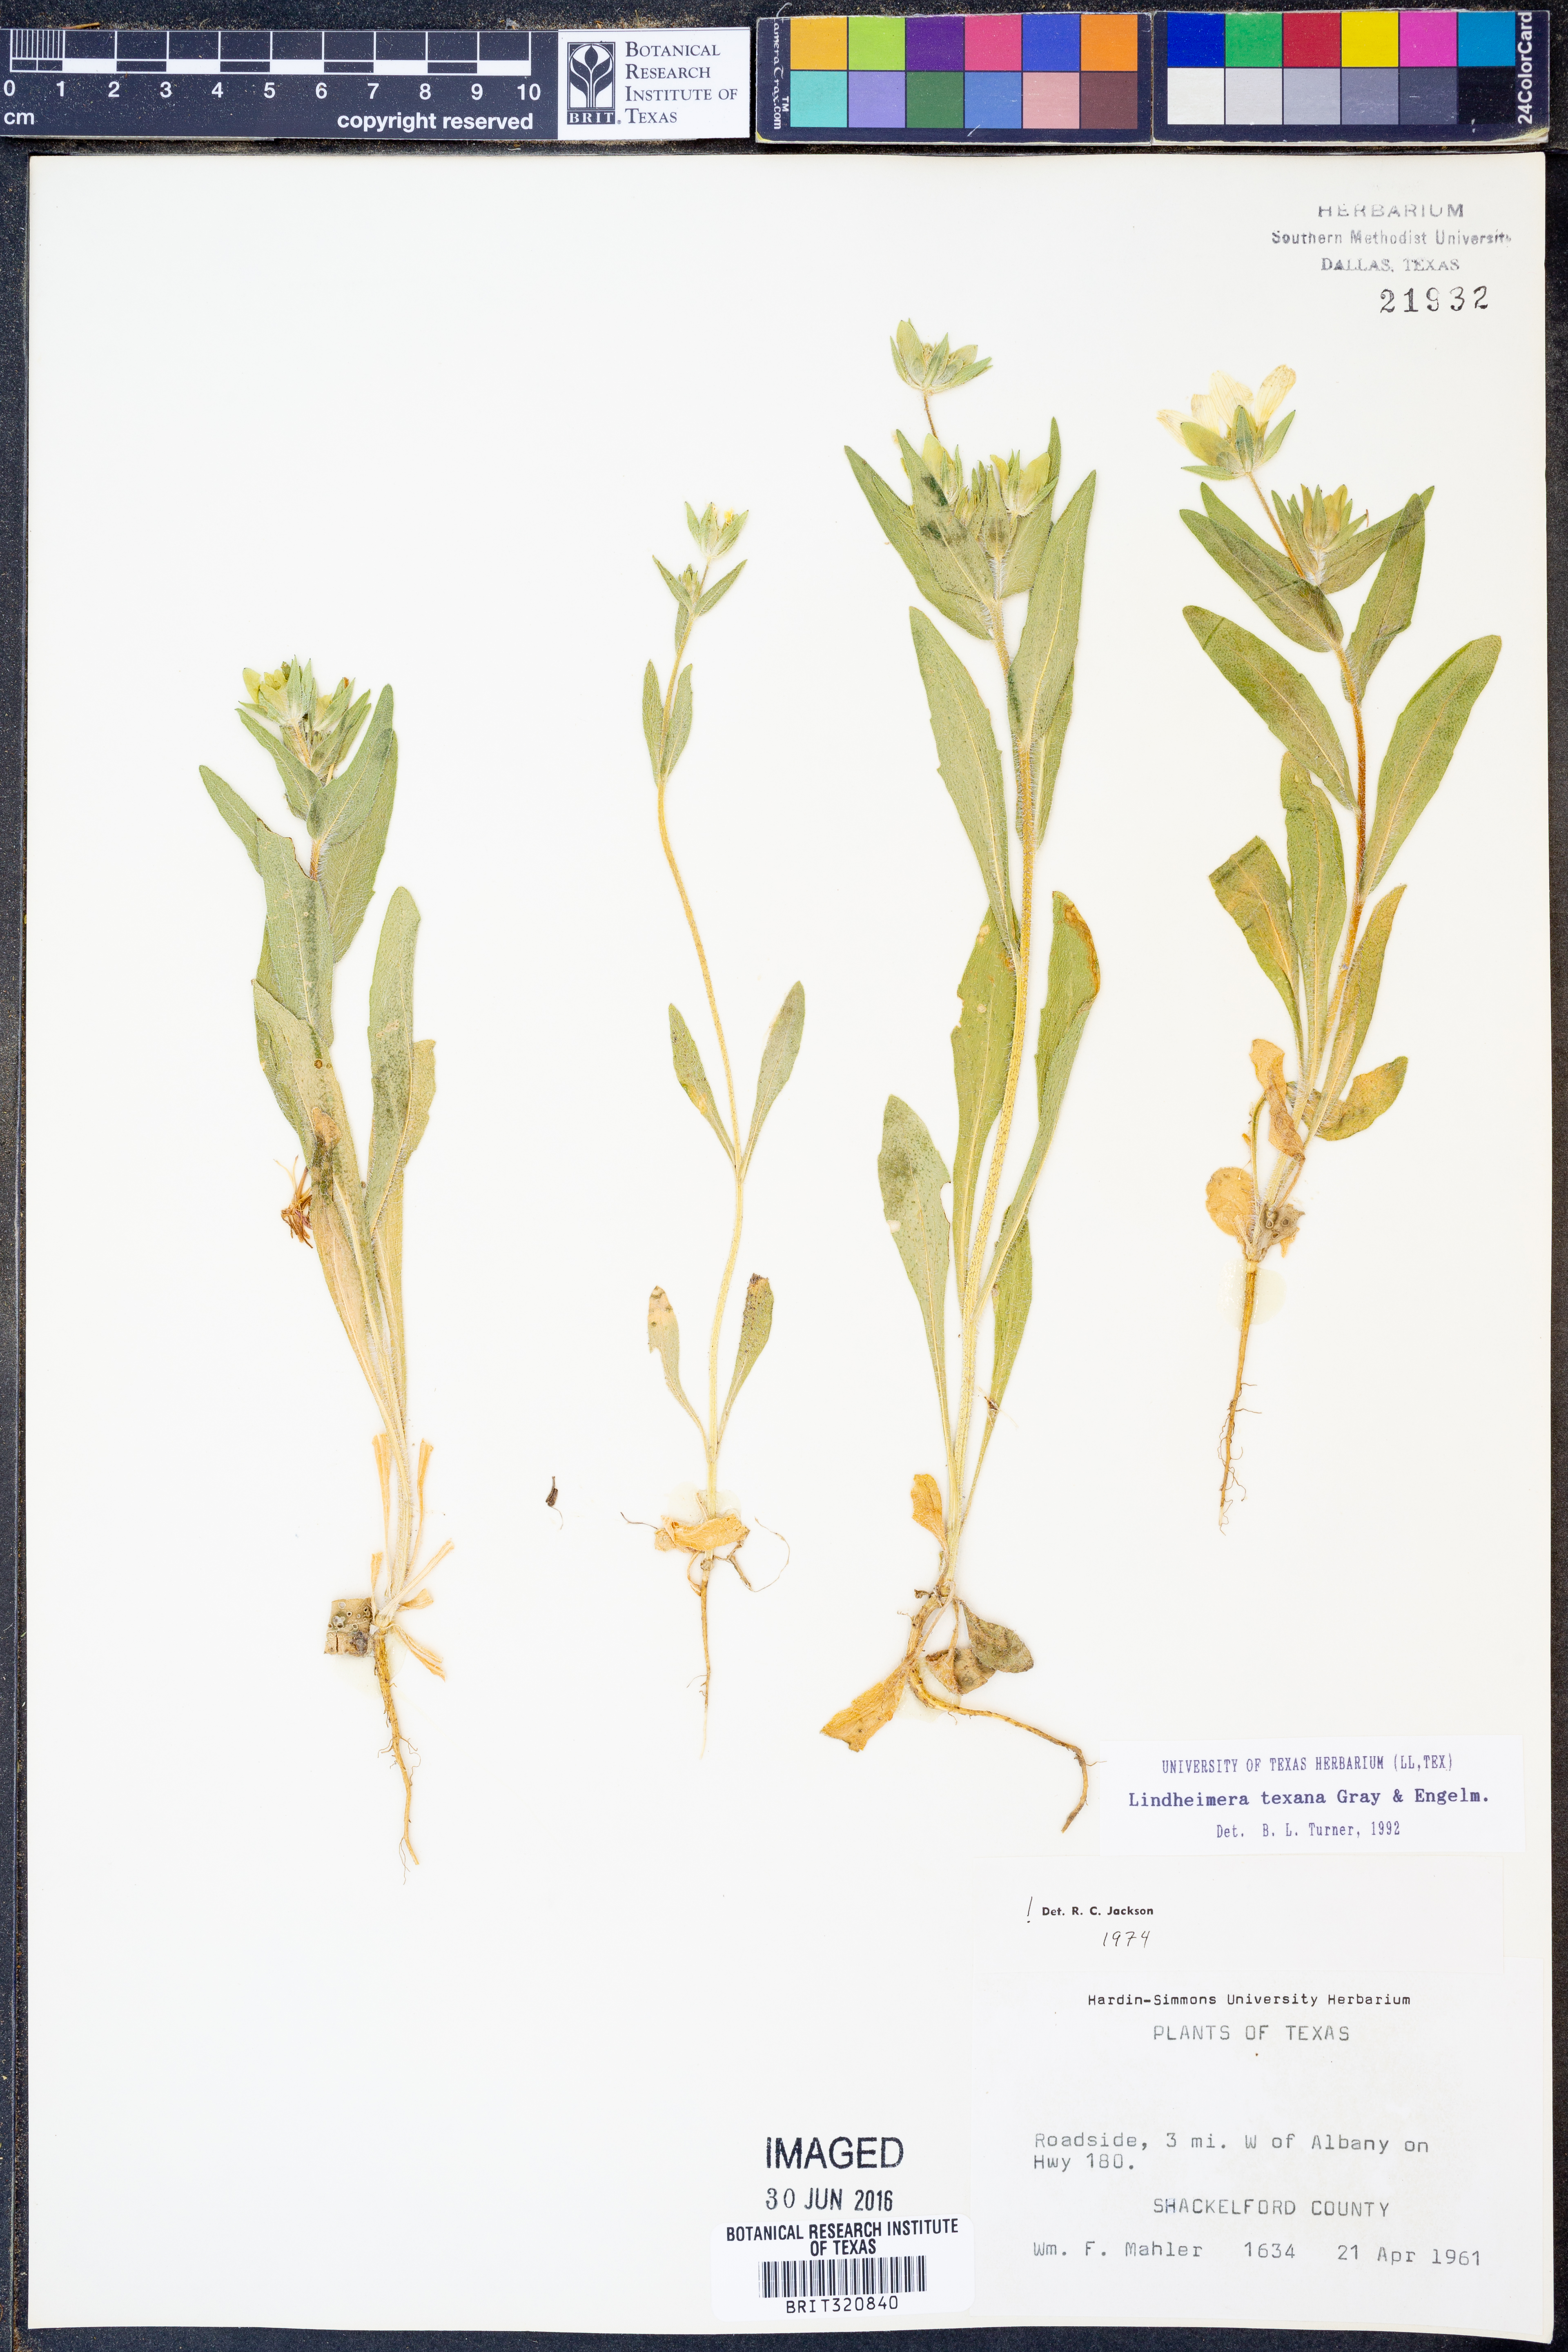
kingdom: Plantae
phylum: Tracheophyta
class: Magnoliopsida
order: Asterales
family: Asteraceae
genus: Lindheimera
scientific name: Lindheimera texana
